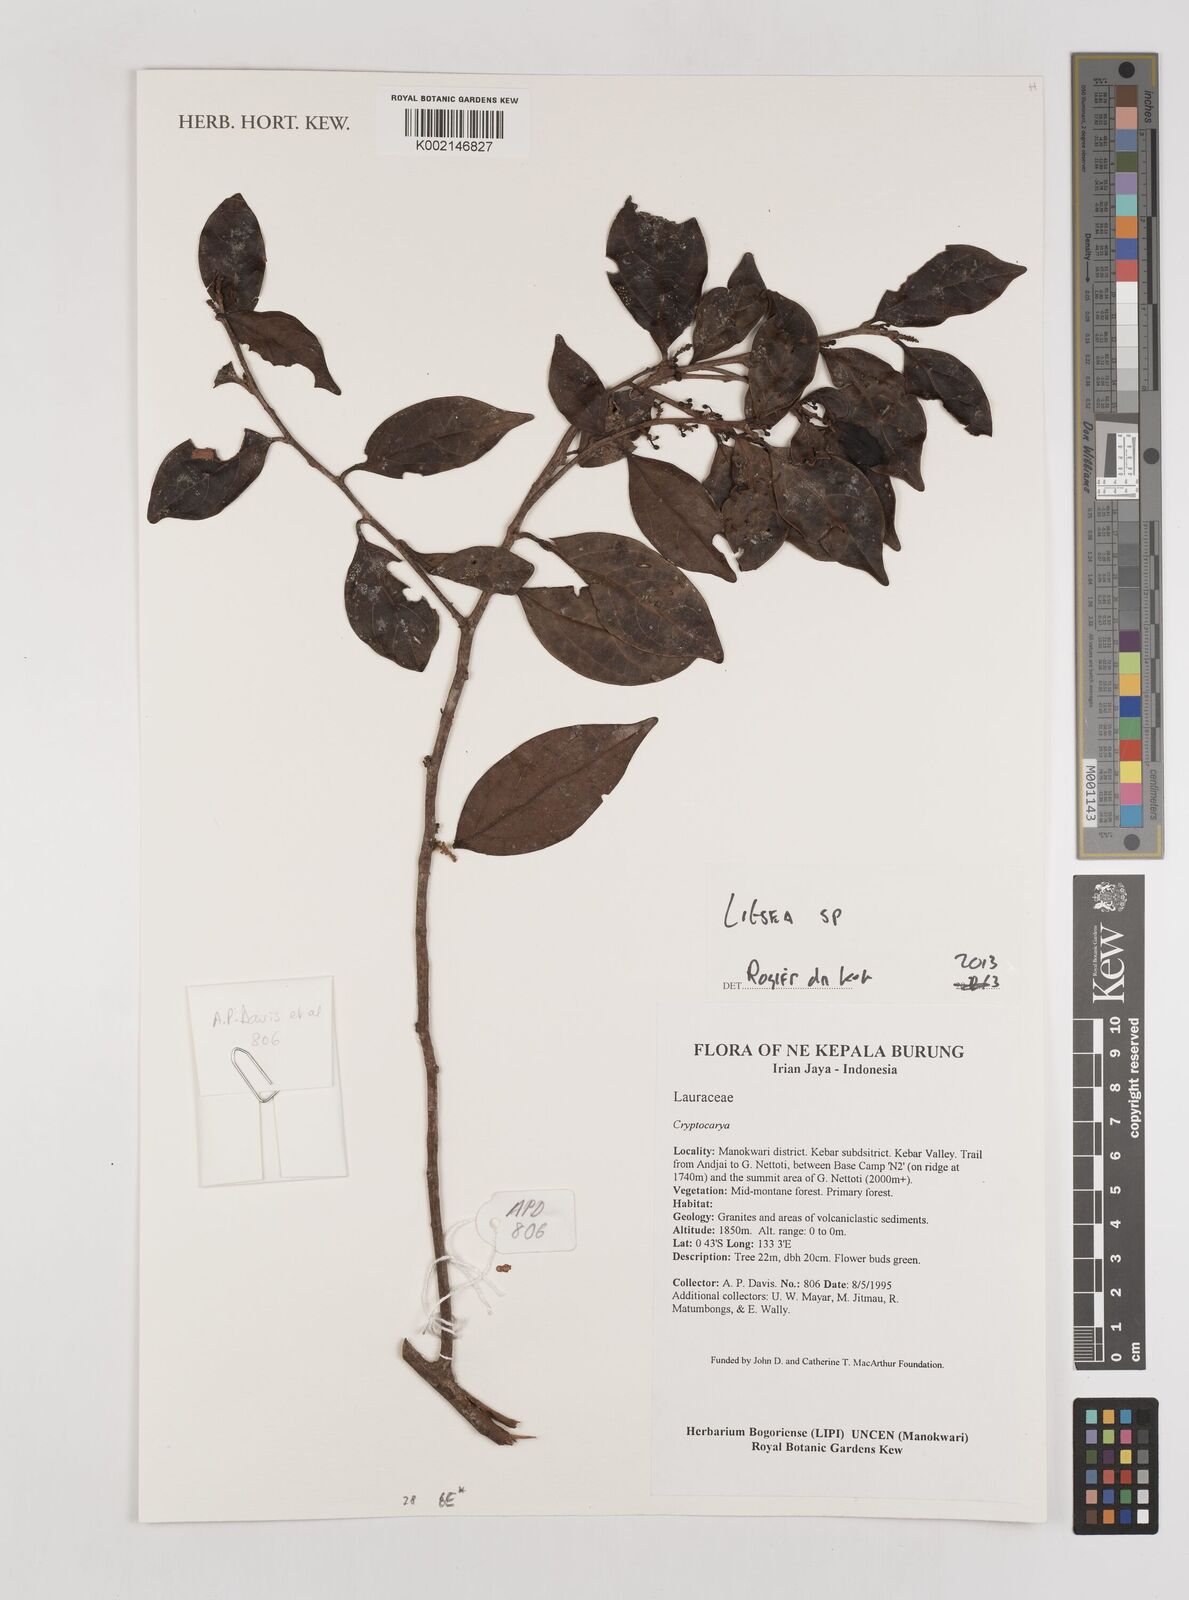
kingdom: Plantae
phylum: Tracheophyta
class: Magnoliopsida
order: Laurales
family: Lauraceae
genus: Litsea
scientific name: Litsea
